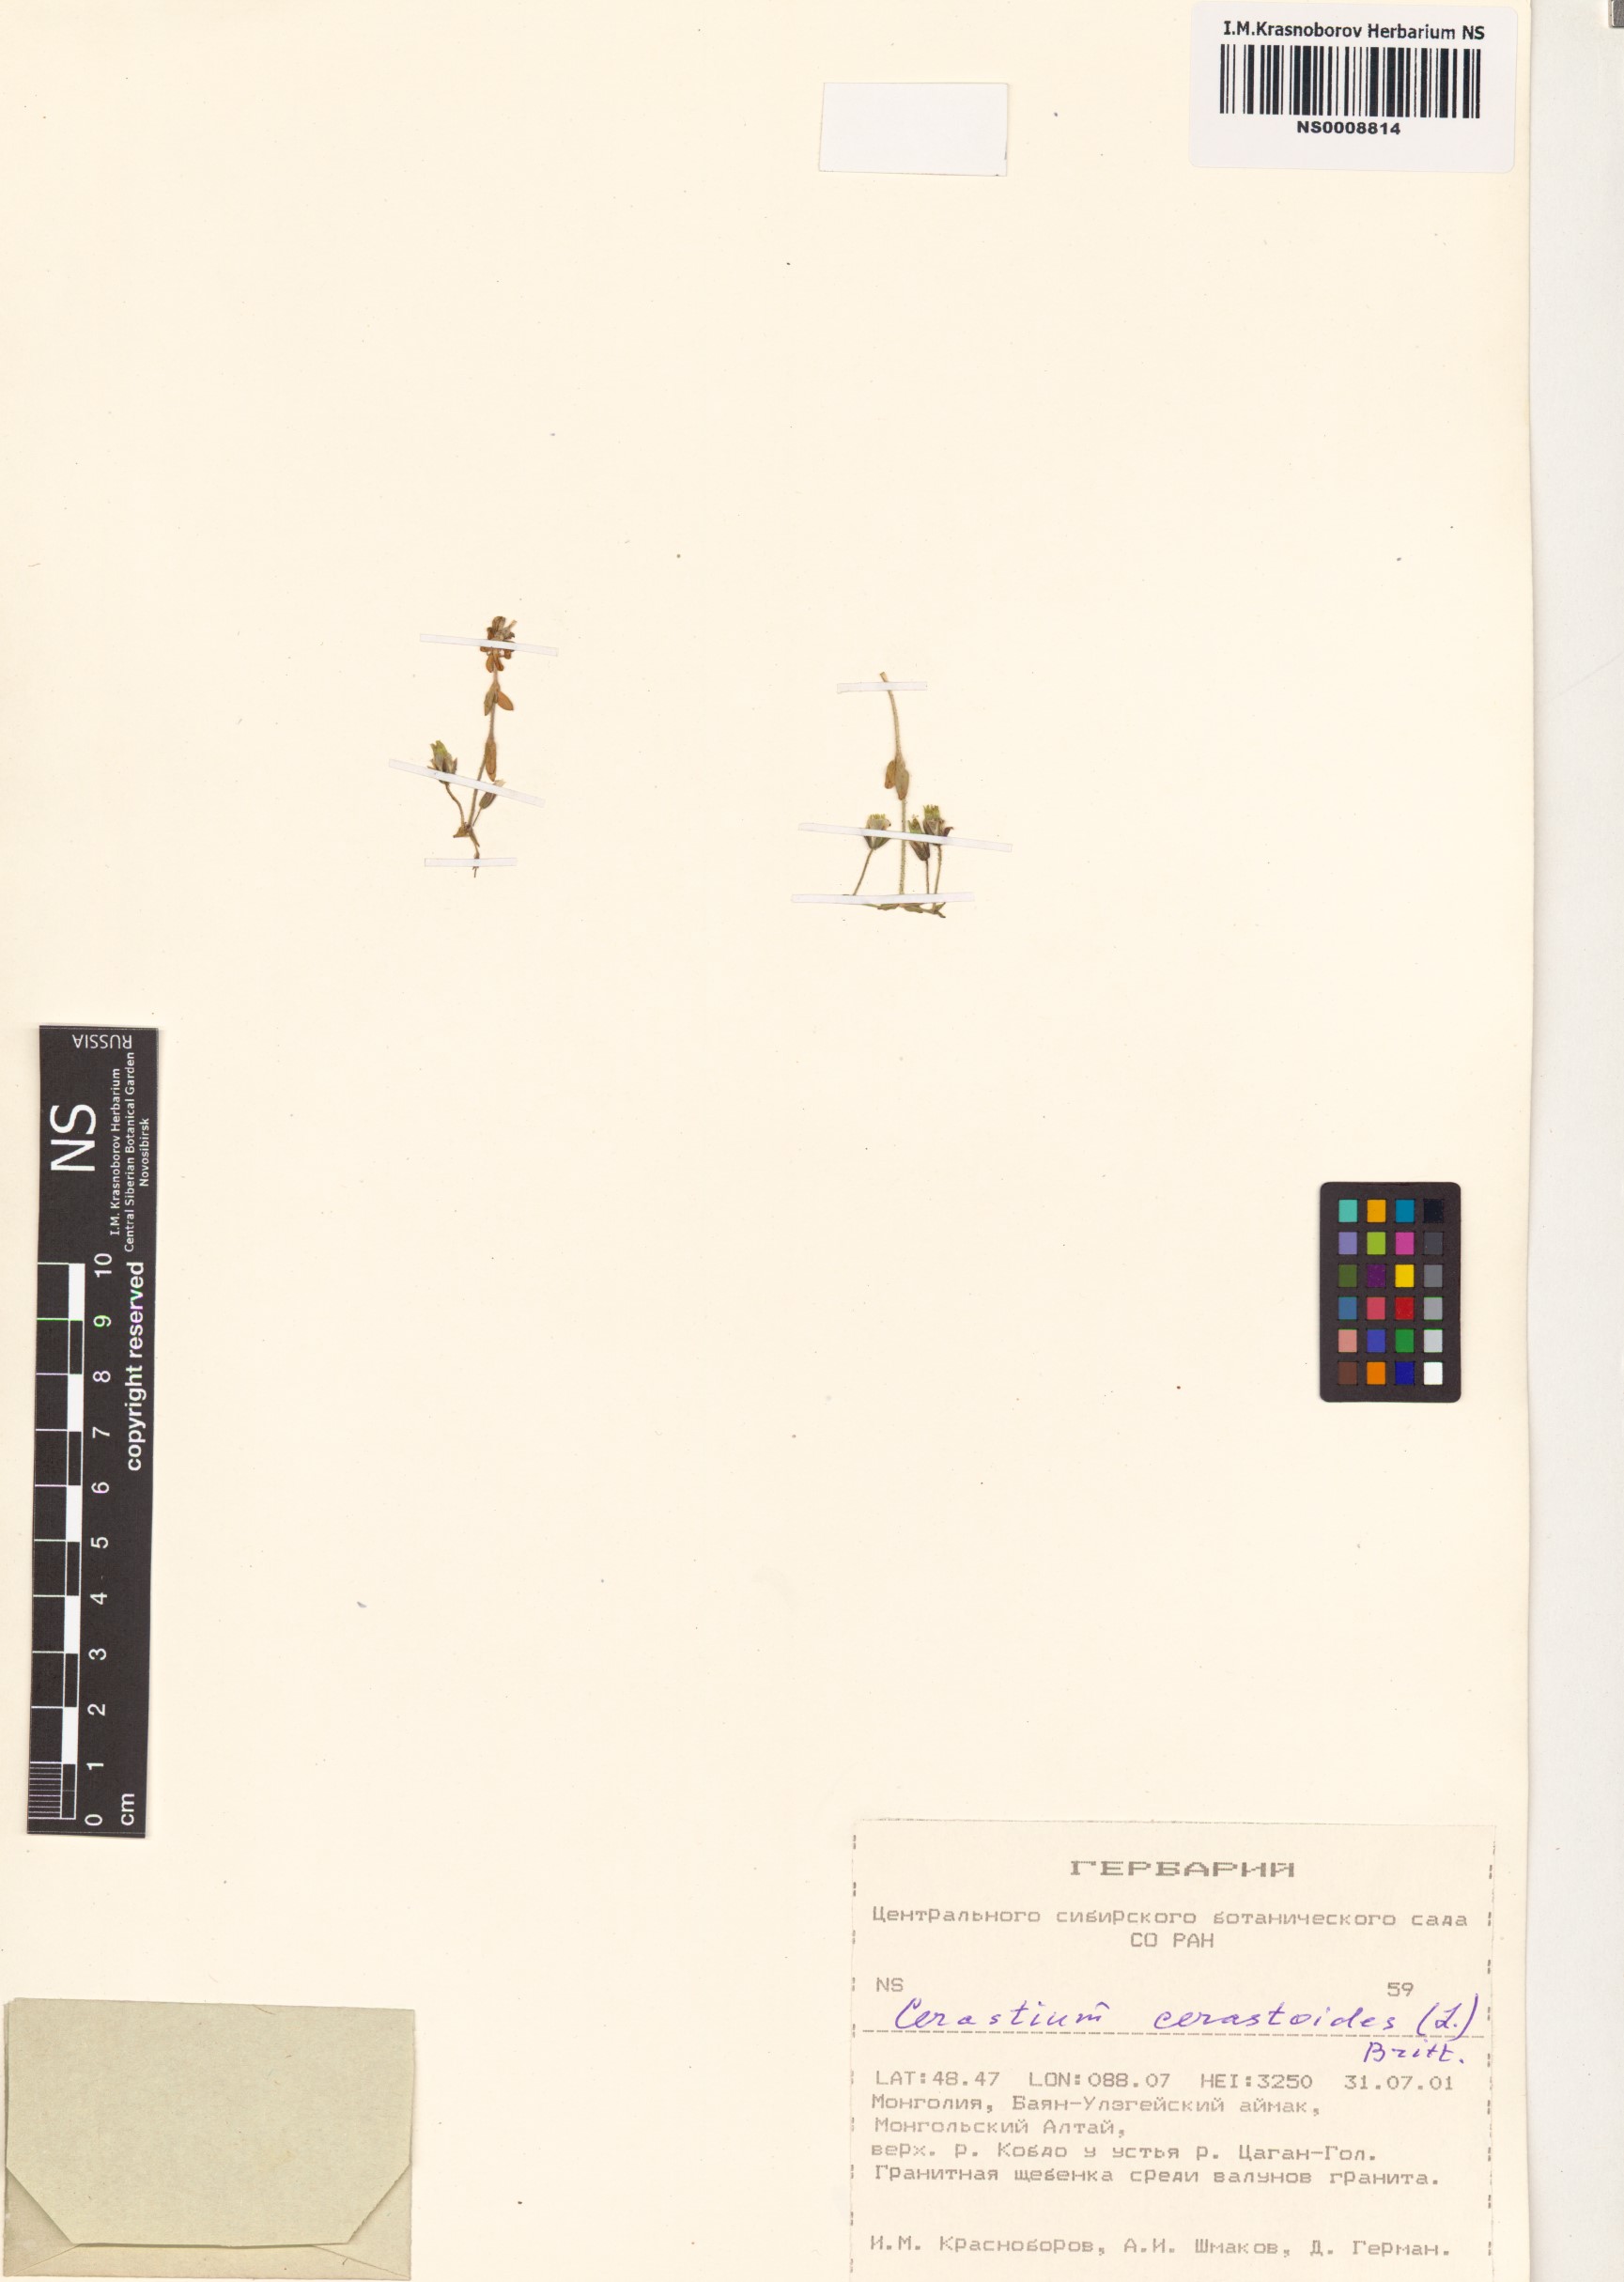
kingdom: Plantae
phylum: Tracheophyta
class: Magnoliopsida
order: Caryophyllales
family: Caryophyllaceae
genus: Dichodon
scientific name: Dichodon cerastoides
